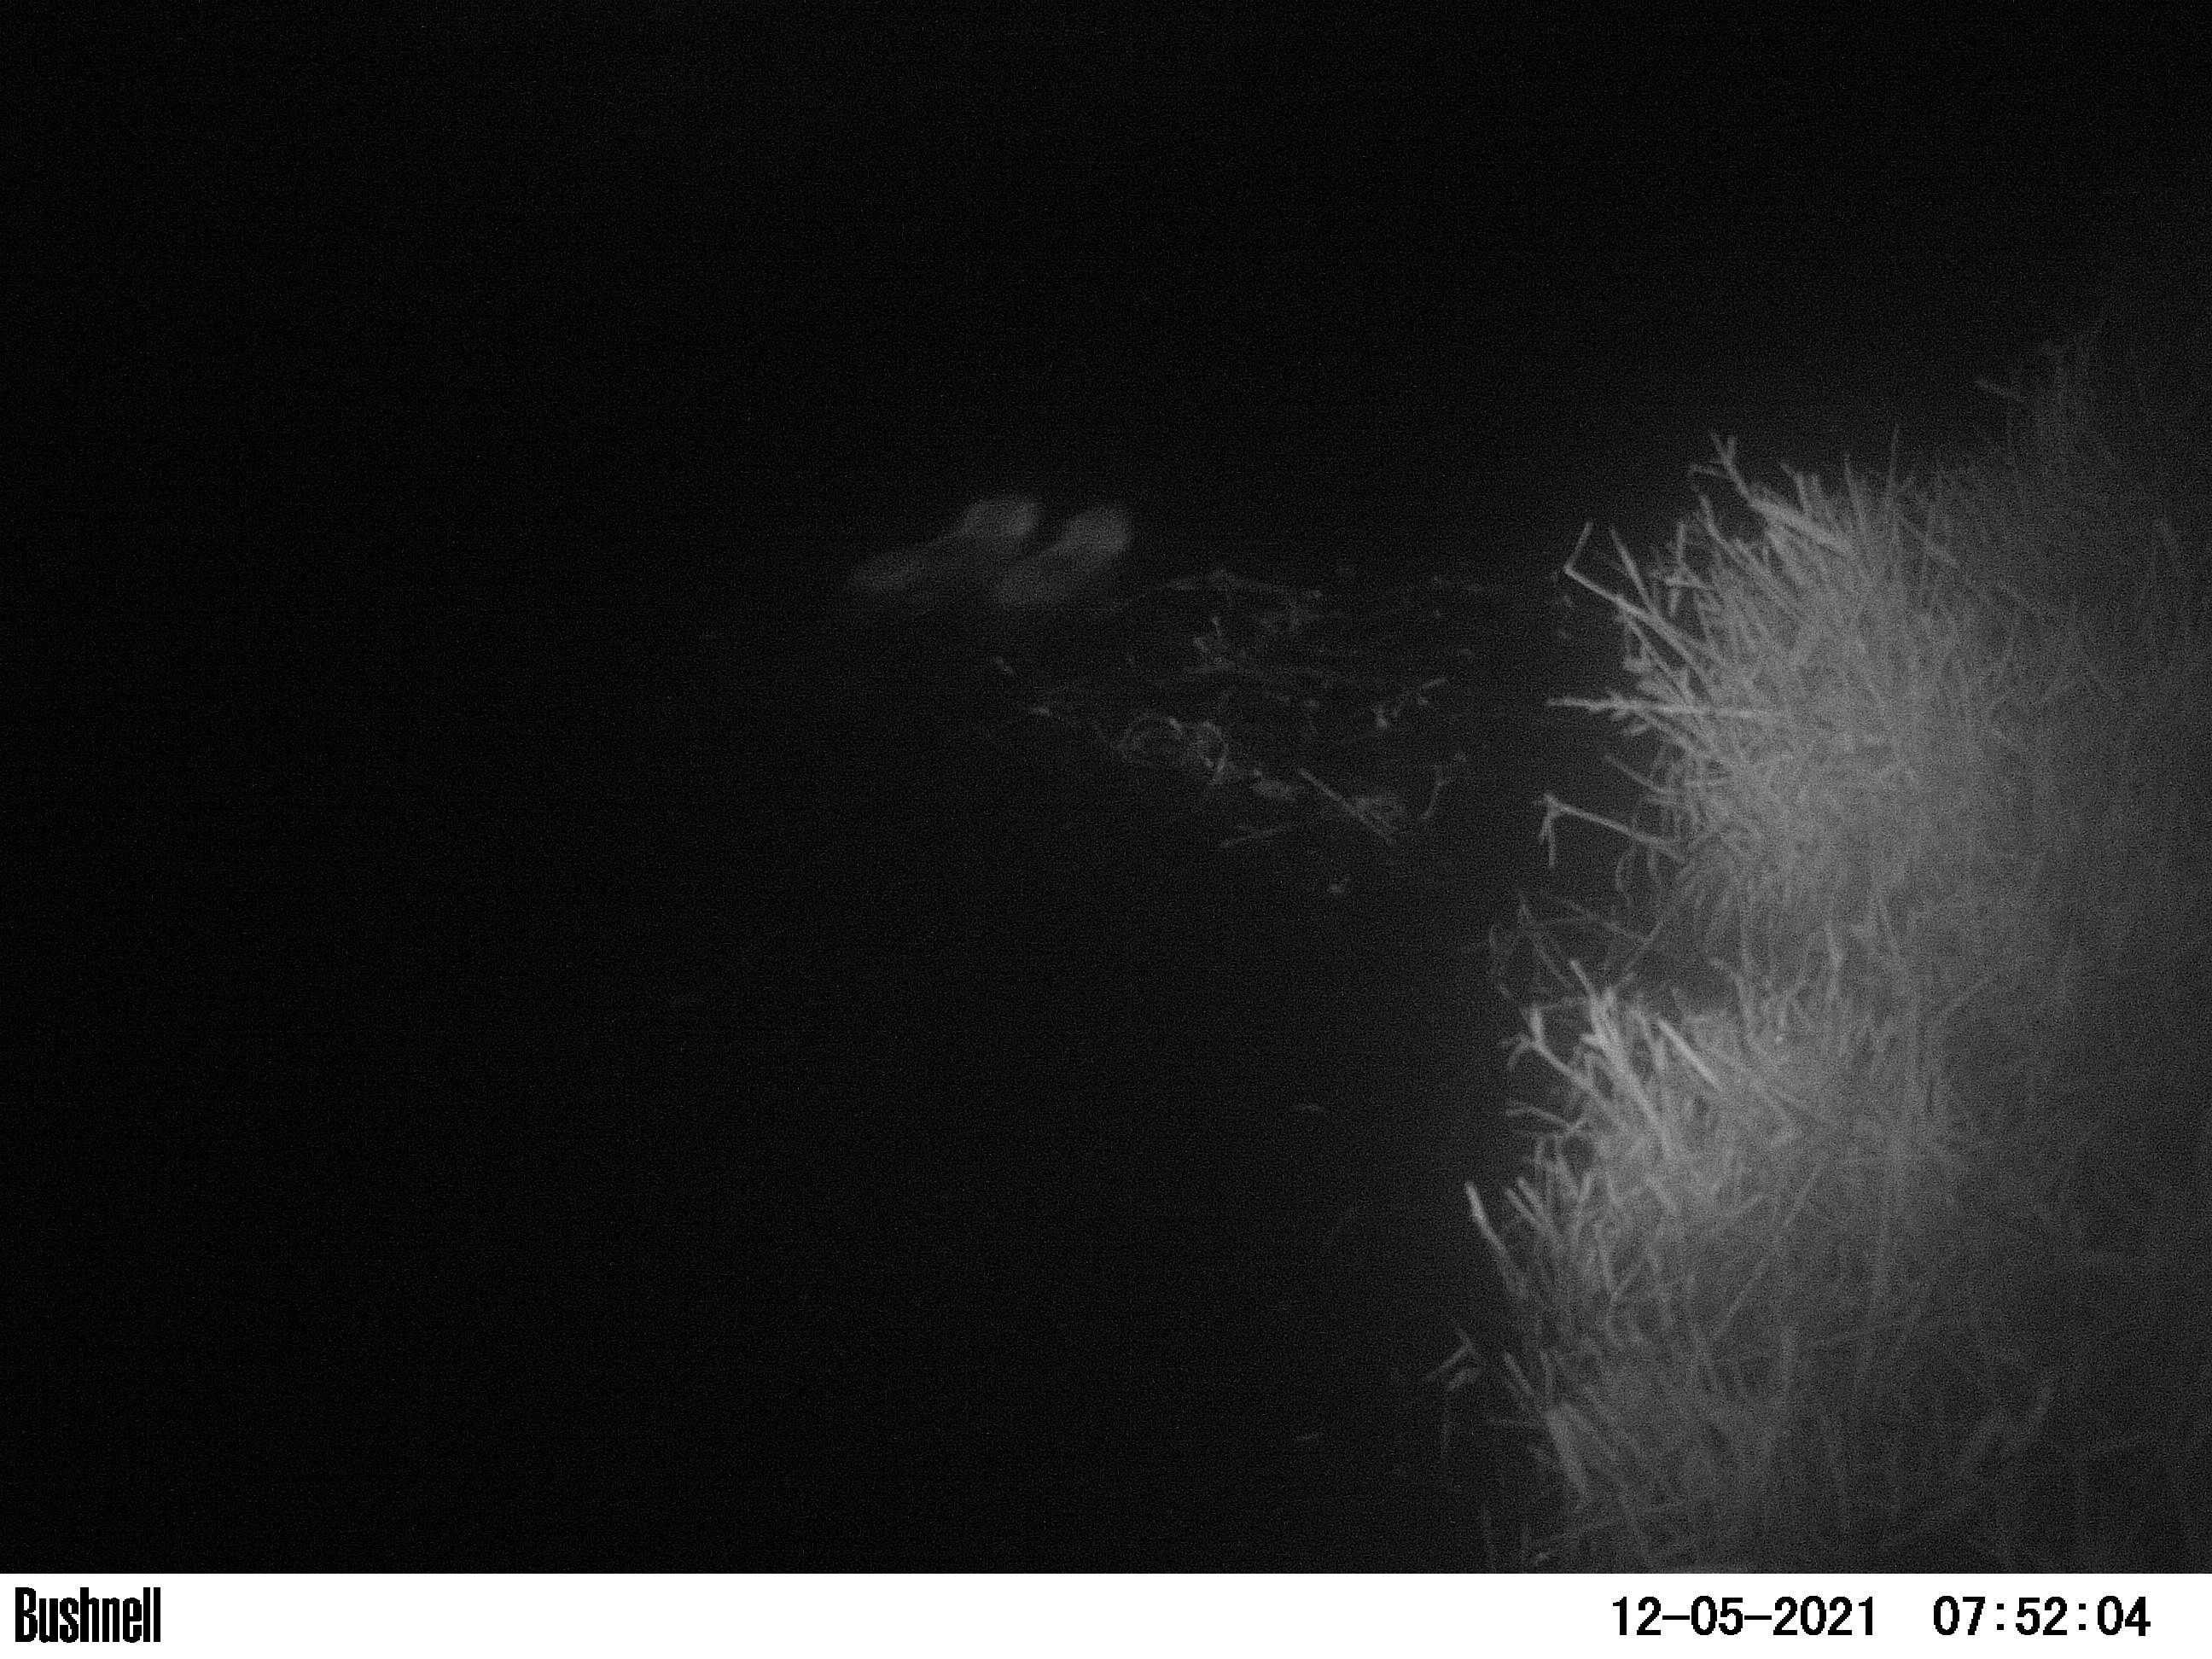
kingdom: Animalia
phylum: Chordata
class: Mammalia
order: Rodentia
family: Cricetidae
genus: Ondatra
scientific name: Ondatra zibethicus
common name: Muskrat
